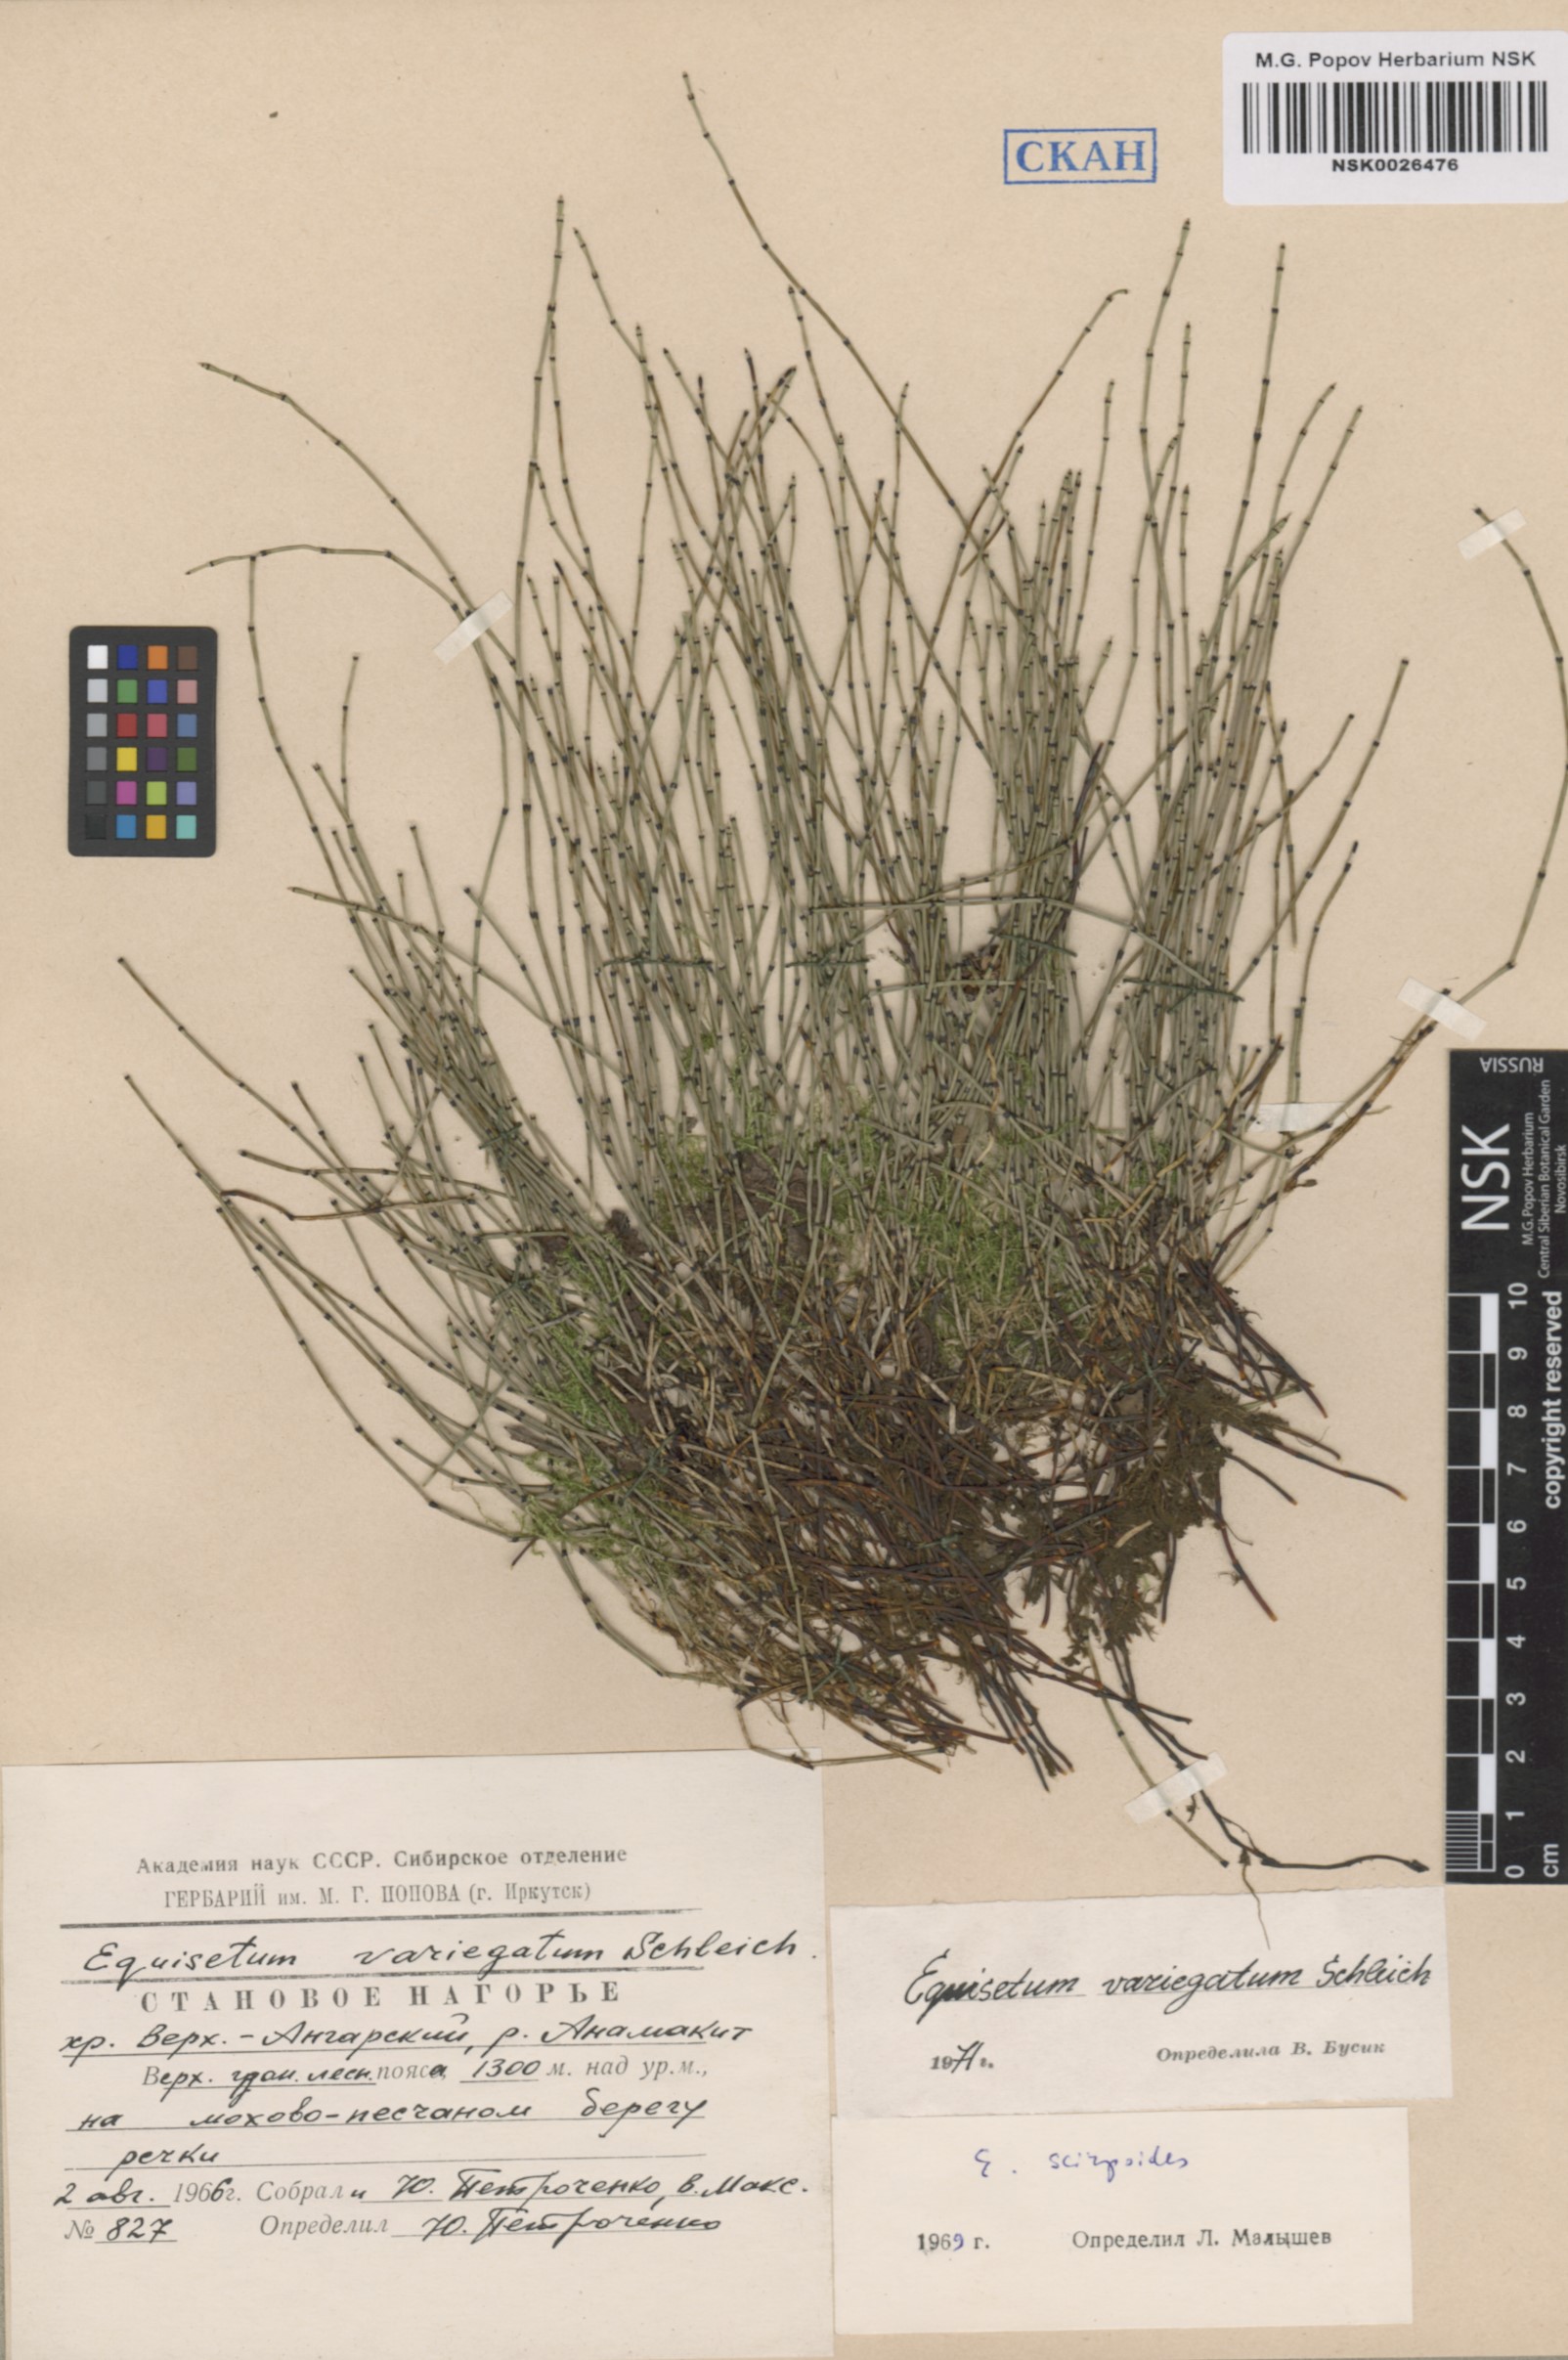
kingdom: Plantae
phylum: Tracheophyta
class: Polypodiopsida
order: Equisetales
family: Equisetaceae
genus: Equisetum
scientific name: Equisetum variegatum
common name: Variegated horsetail
